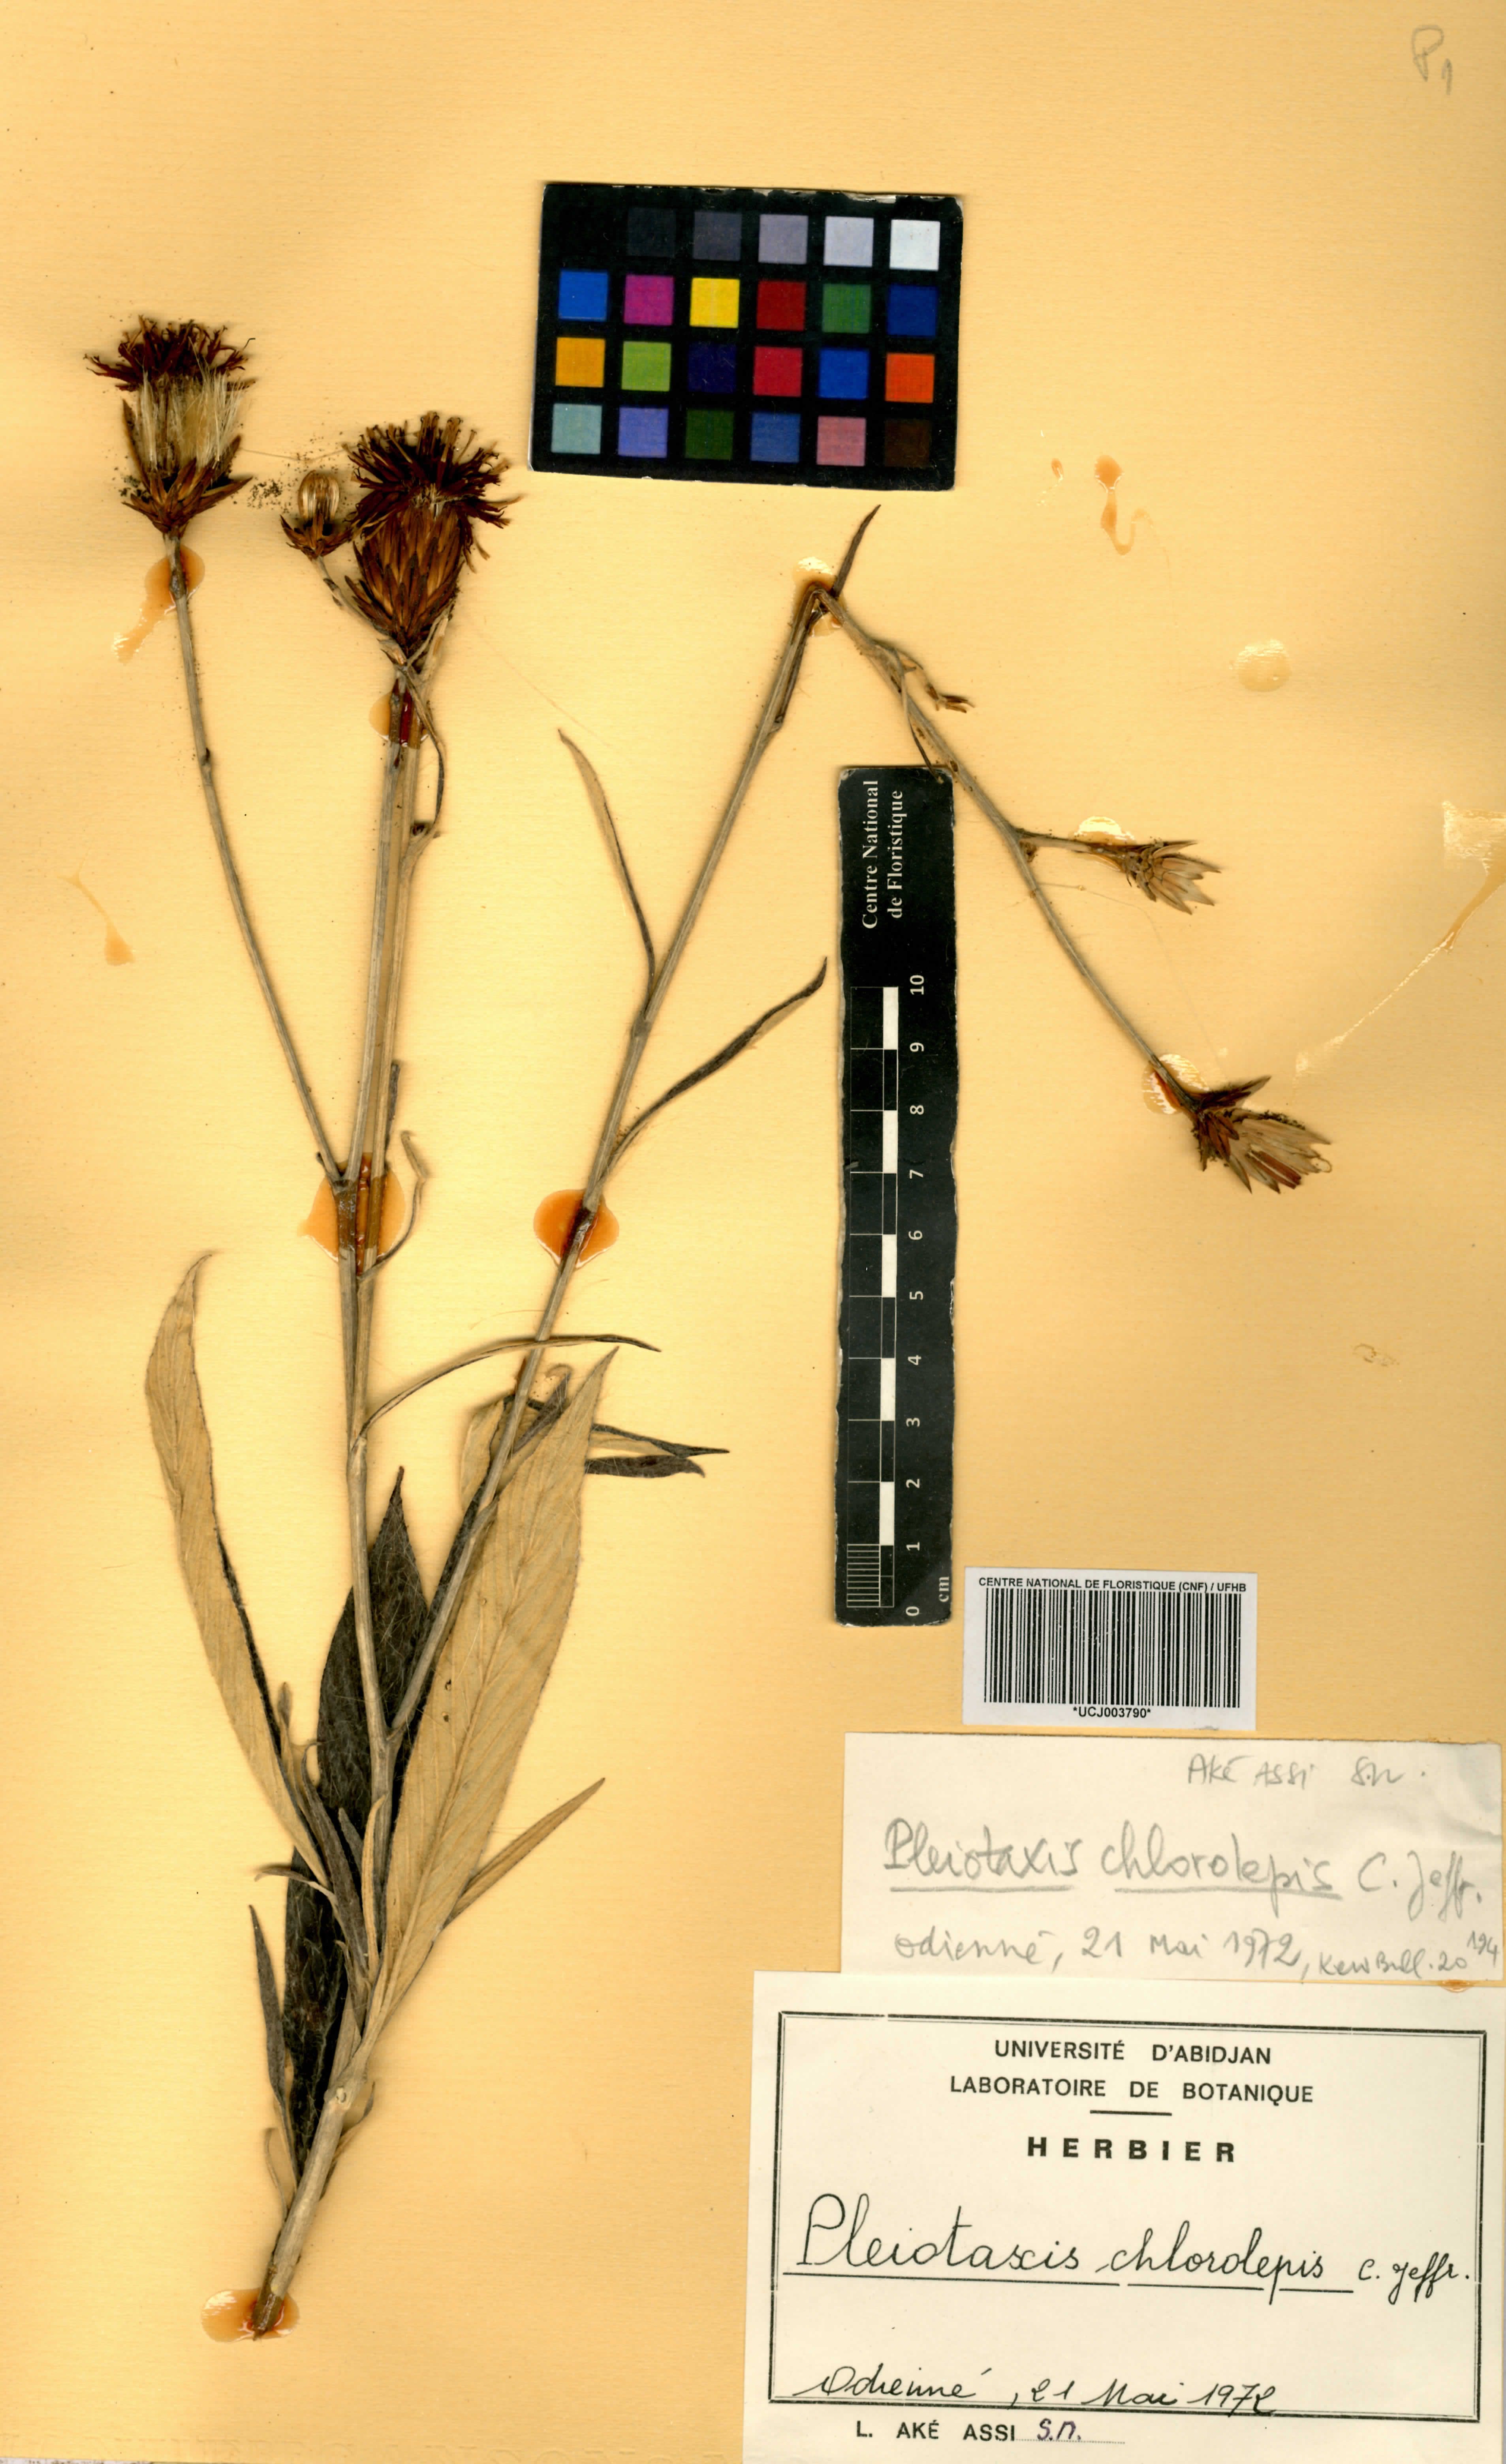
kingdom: Plantae
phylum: Tracheophyta
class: Magnoliopsida
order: Asterales
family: Asteraceae
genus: Pleiotaxis
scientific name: Pleiotaxis chlorolepis
